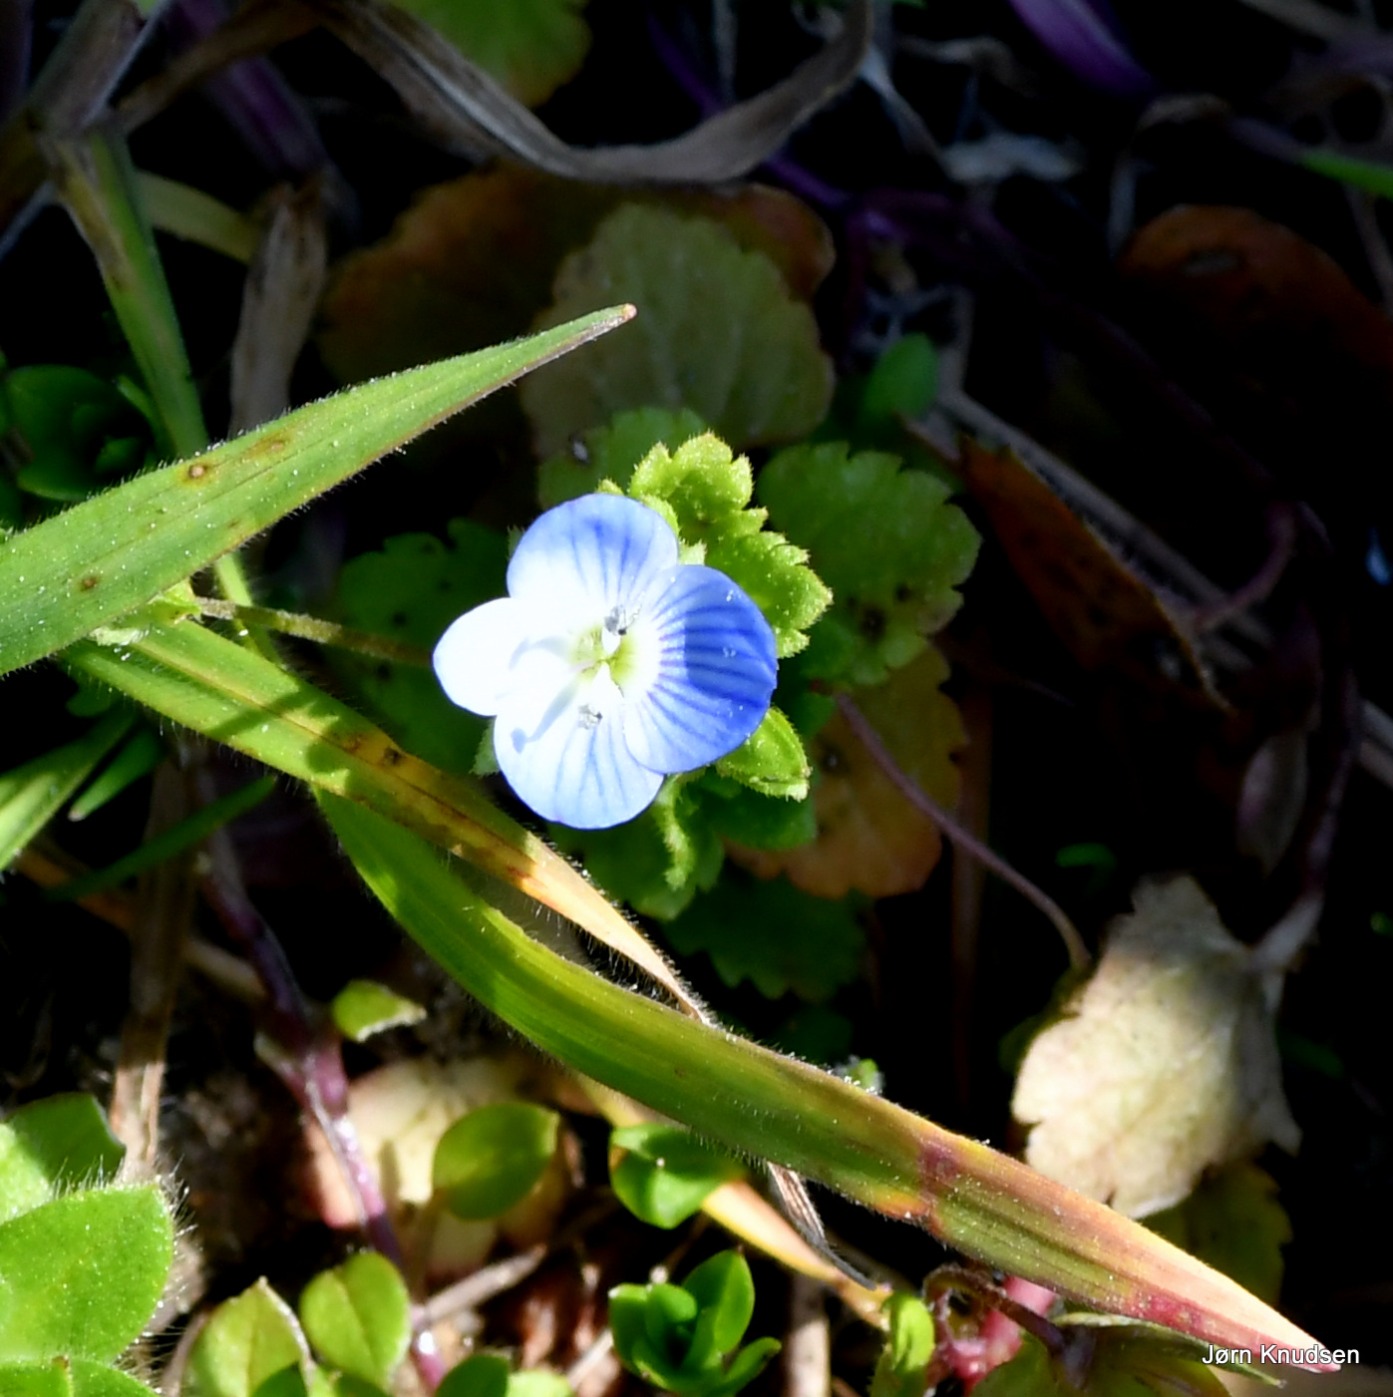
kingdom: Plantae
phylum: Tracheophyta
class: Magnoliopsida
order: Lamiales
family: Plantaginaceae
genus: Veronica
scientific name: Veronica persica
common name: Storkronet ærenpris
